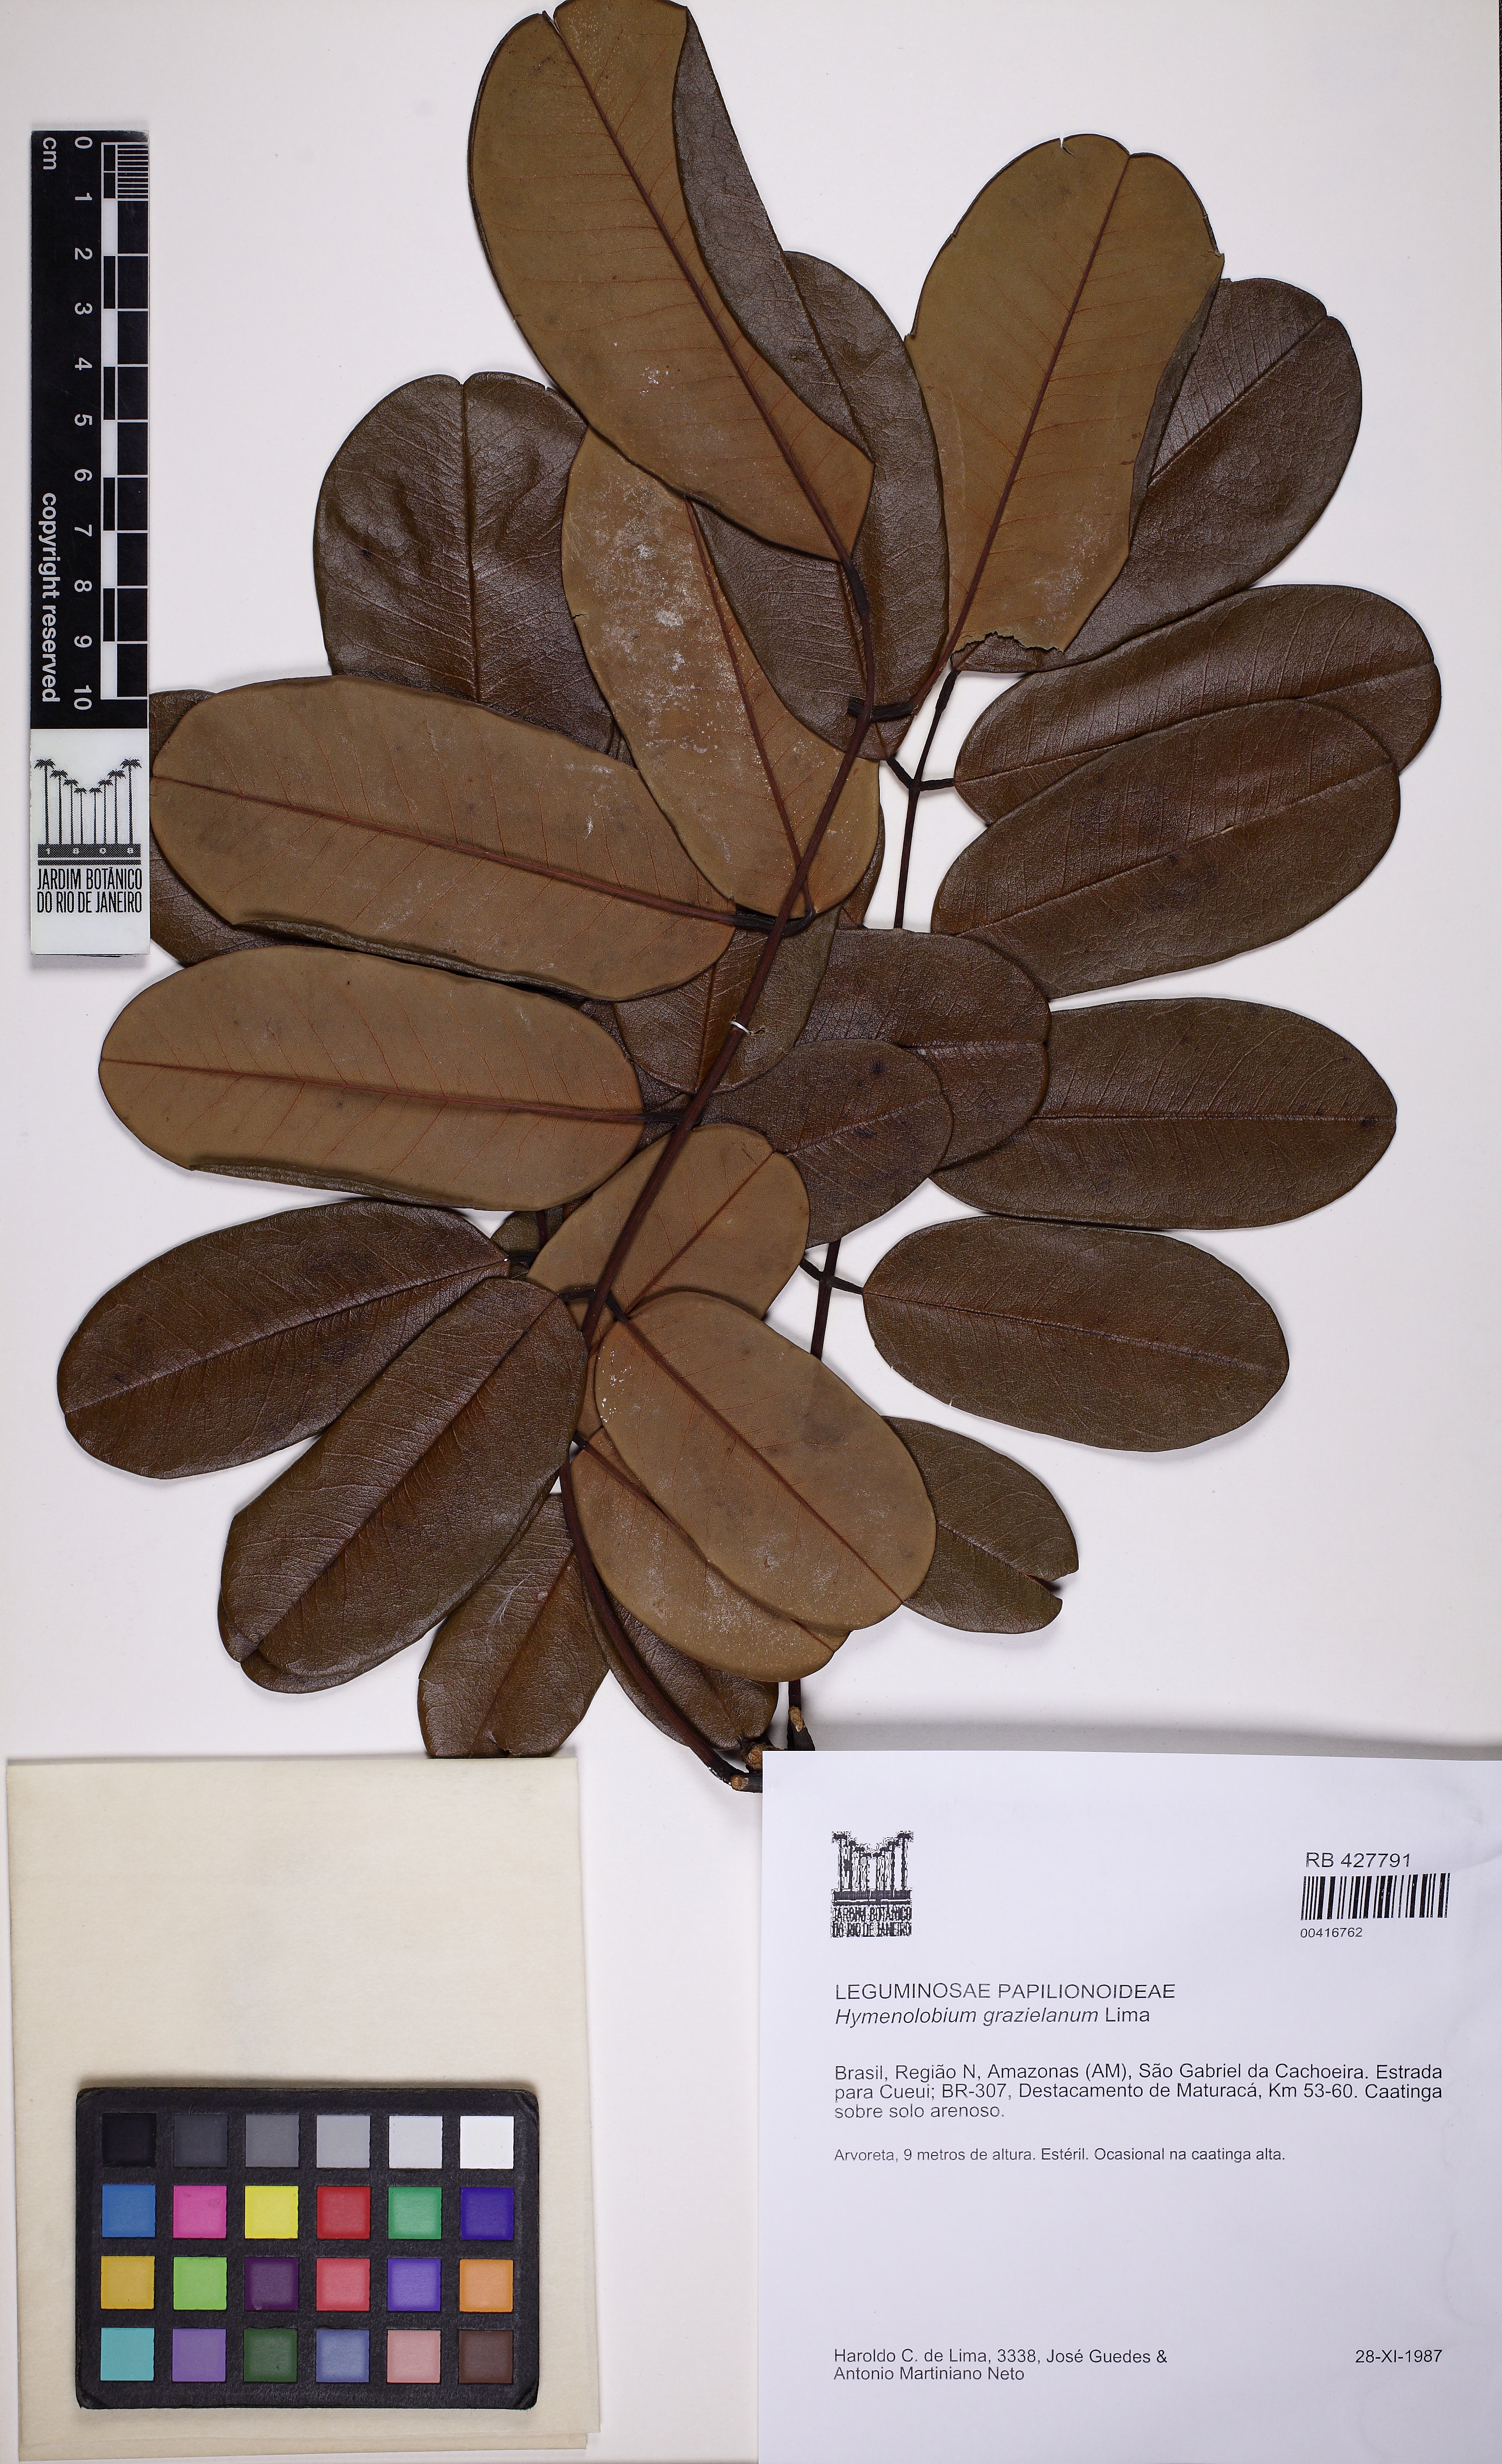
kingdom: Plantae
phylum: Tracheophyta
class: Magnoliopsida
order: Fabales
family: Fabaceae
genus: Hymenolobium
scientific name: Hymenolobium grazielanum
